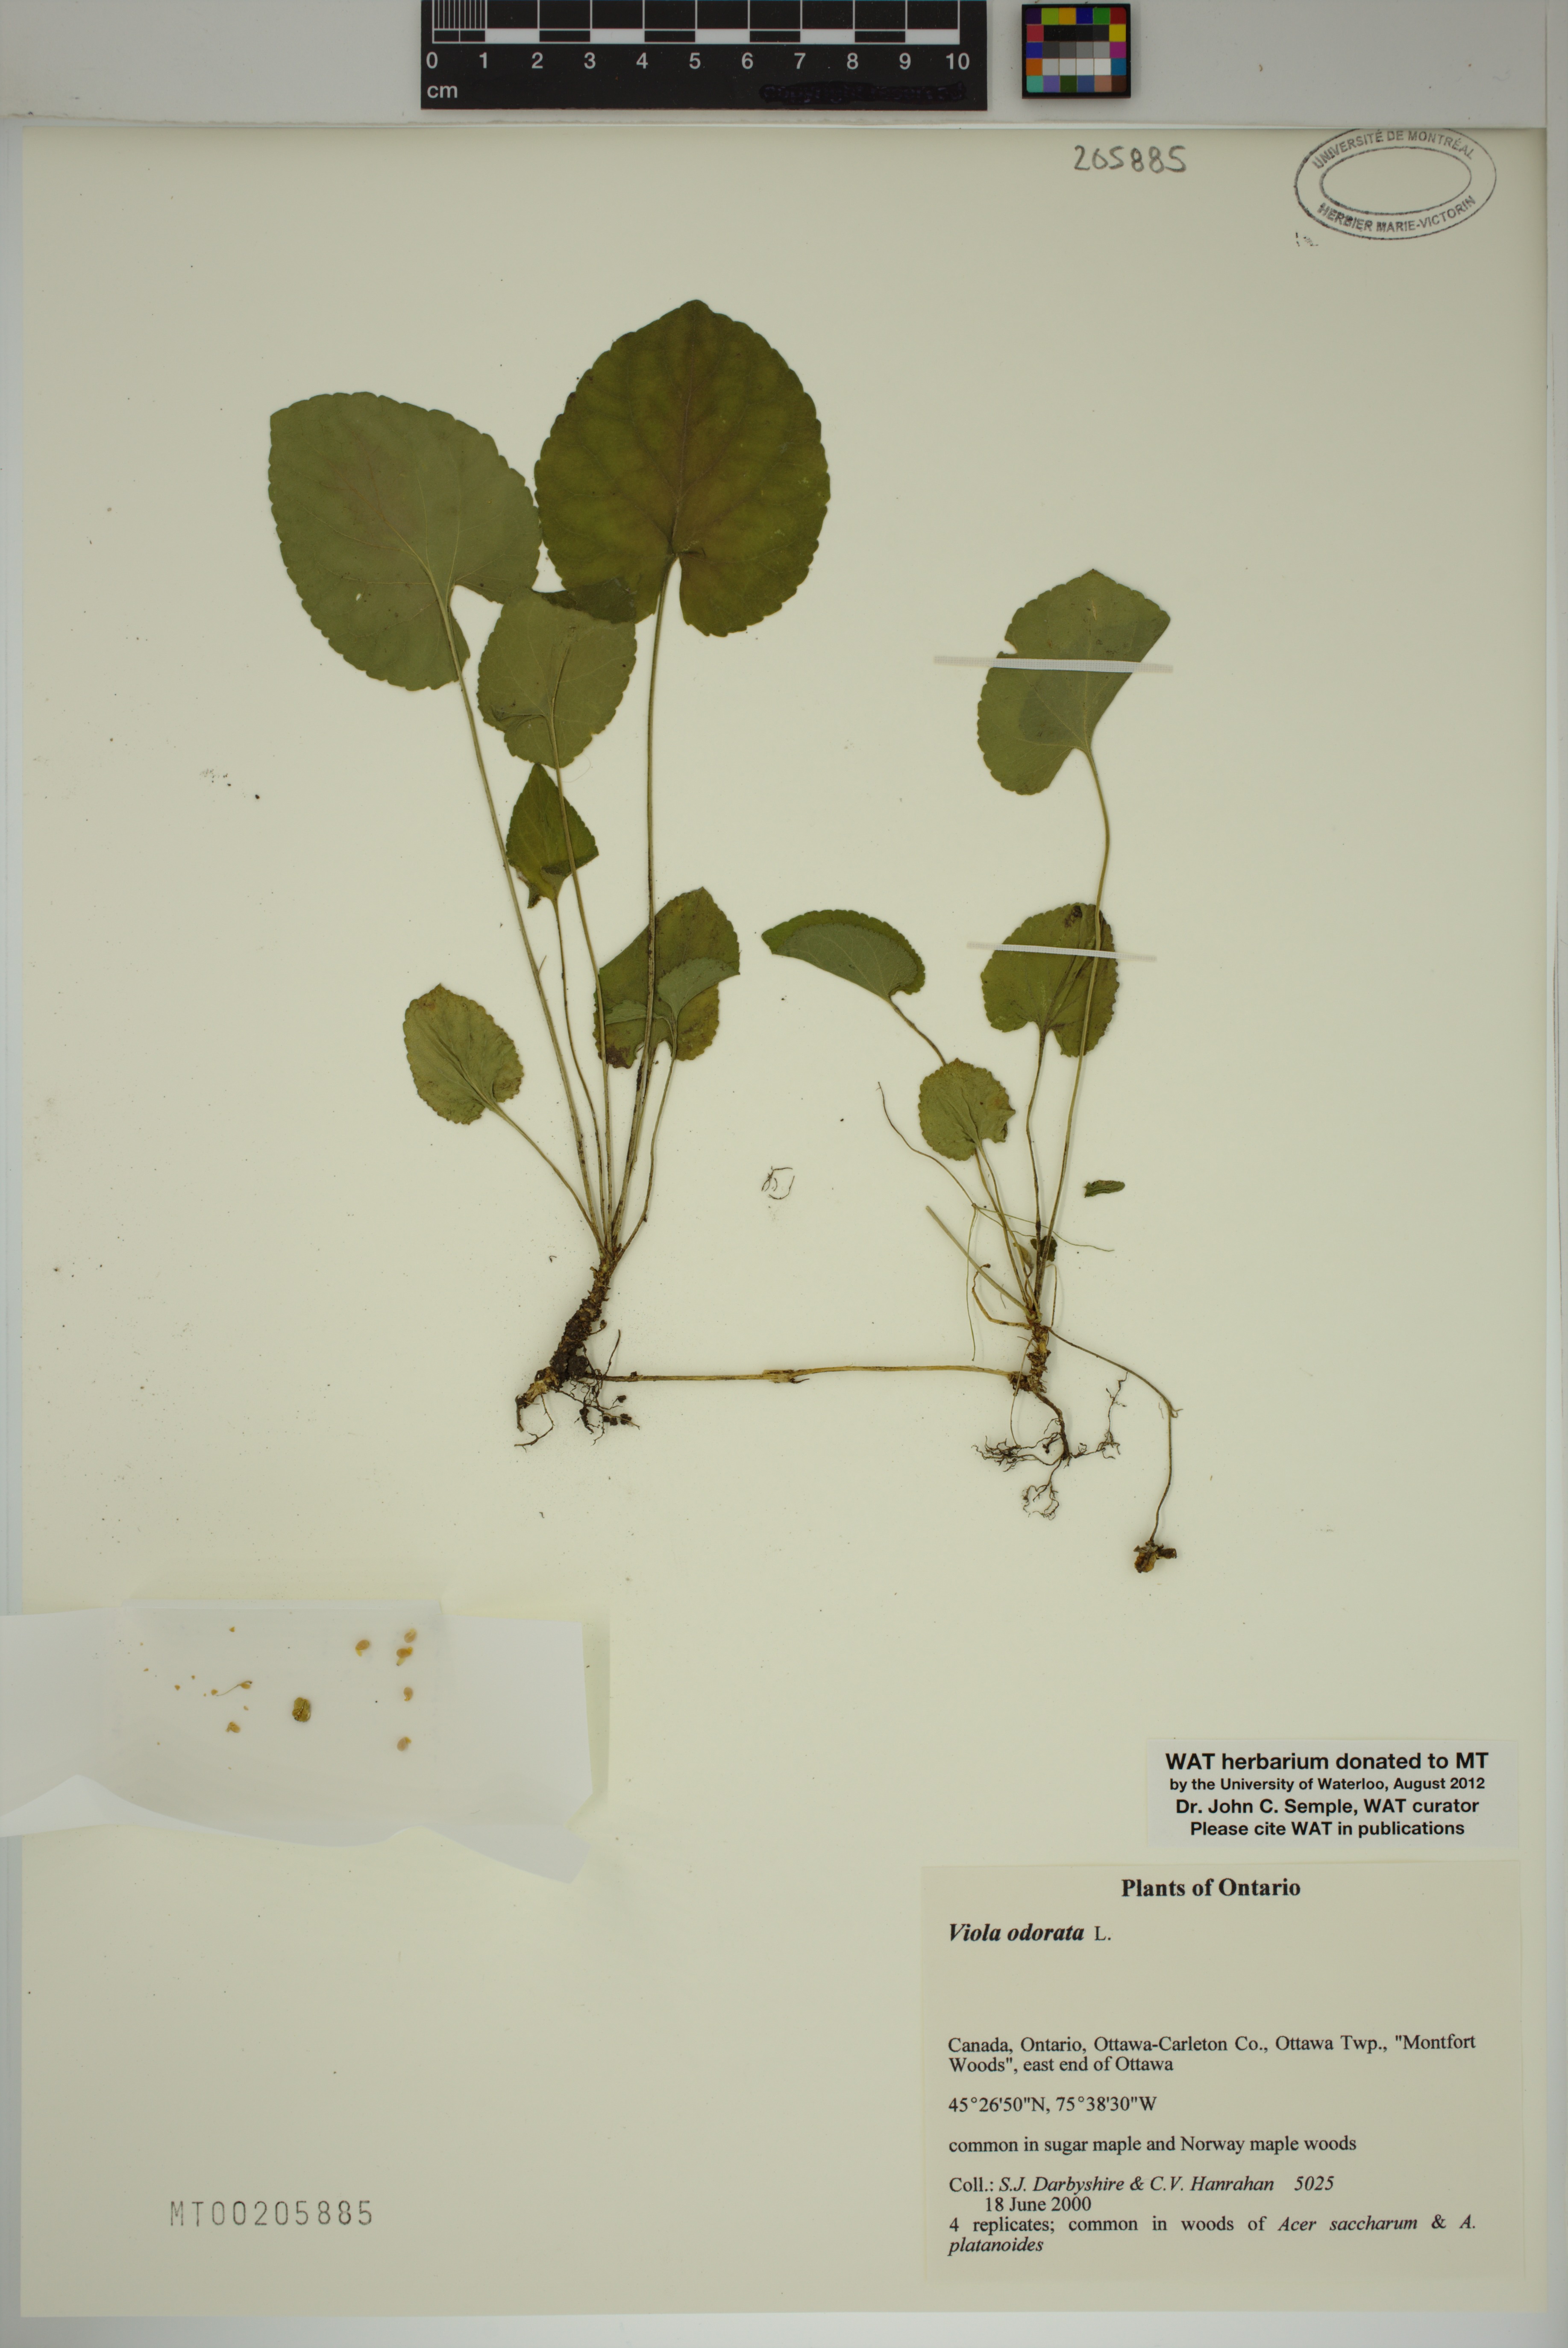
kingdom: Plantae
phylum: Tracheophyta
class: Magnoliopsida
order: Malpighiales
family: Violaceae
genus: Viola
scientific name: Viola odorata
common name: Sweet violet
